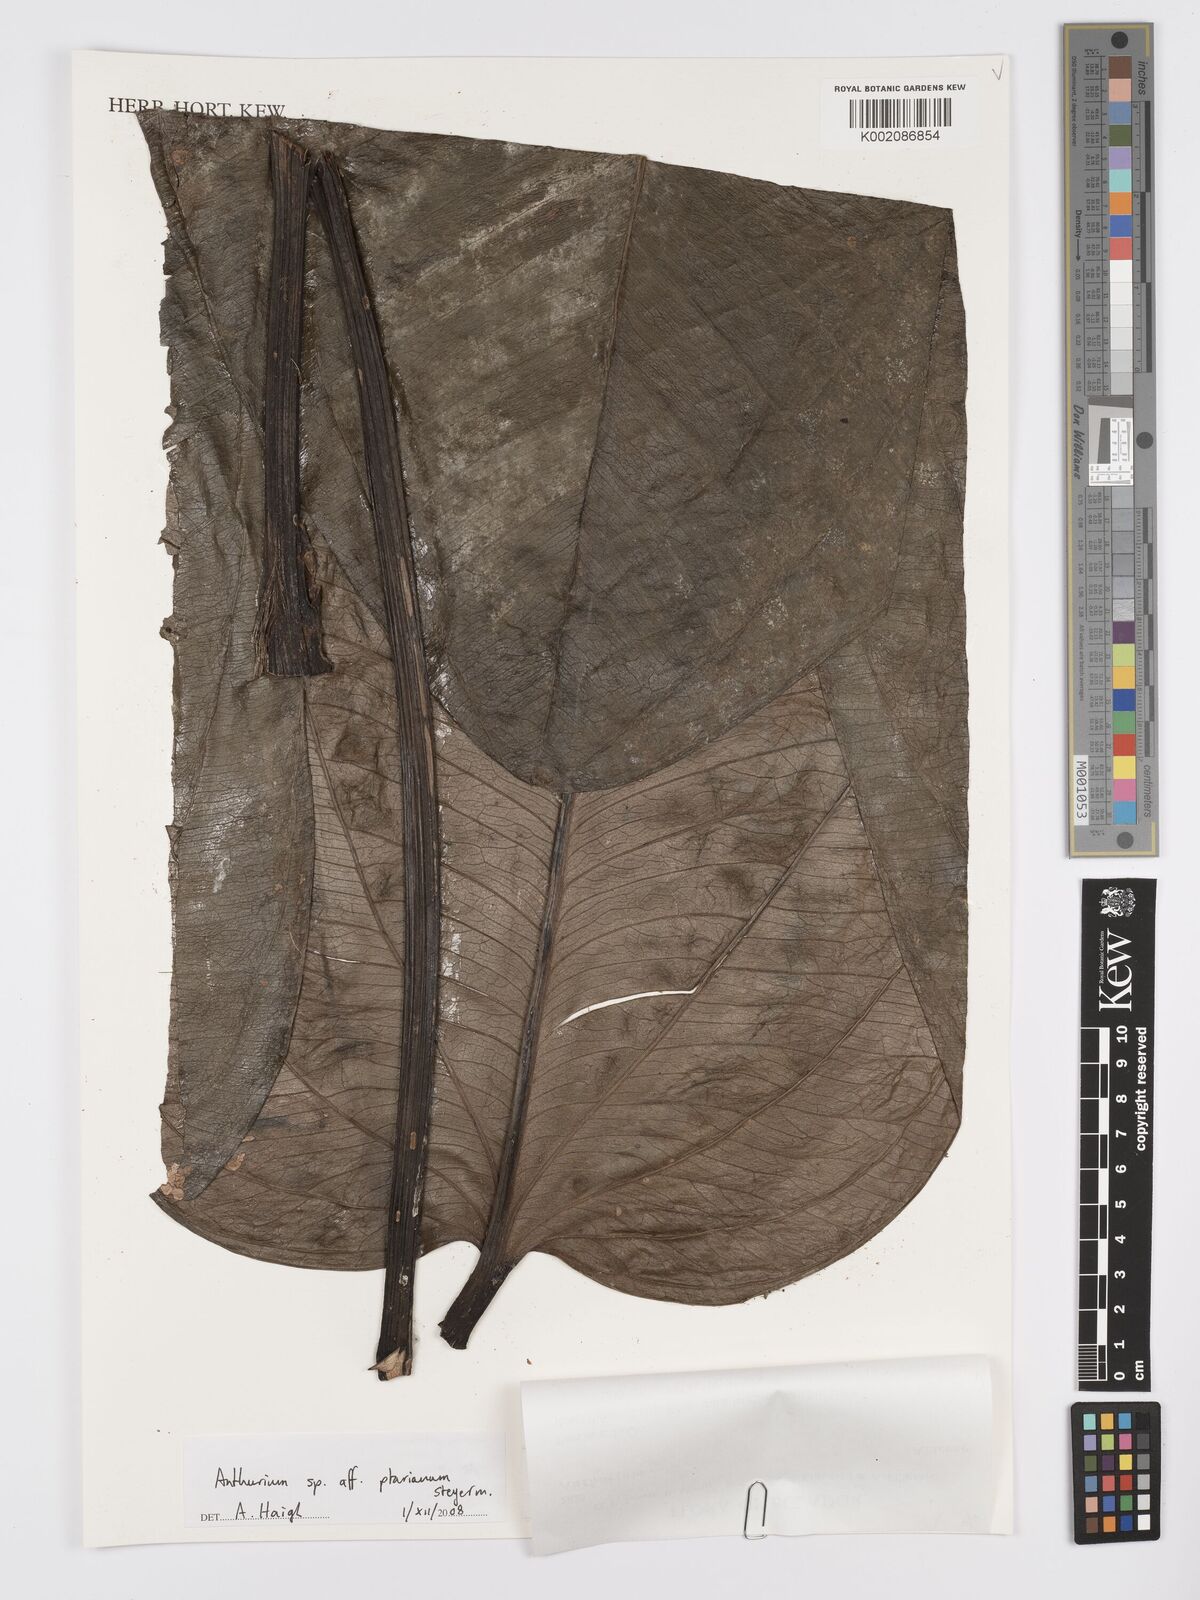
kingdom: Plantae
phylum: Tracheophyta
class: Liliopsida
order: Alismatales
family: Araceae
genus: Anthurium
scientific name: Anthurium ptarianum
